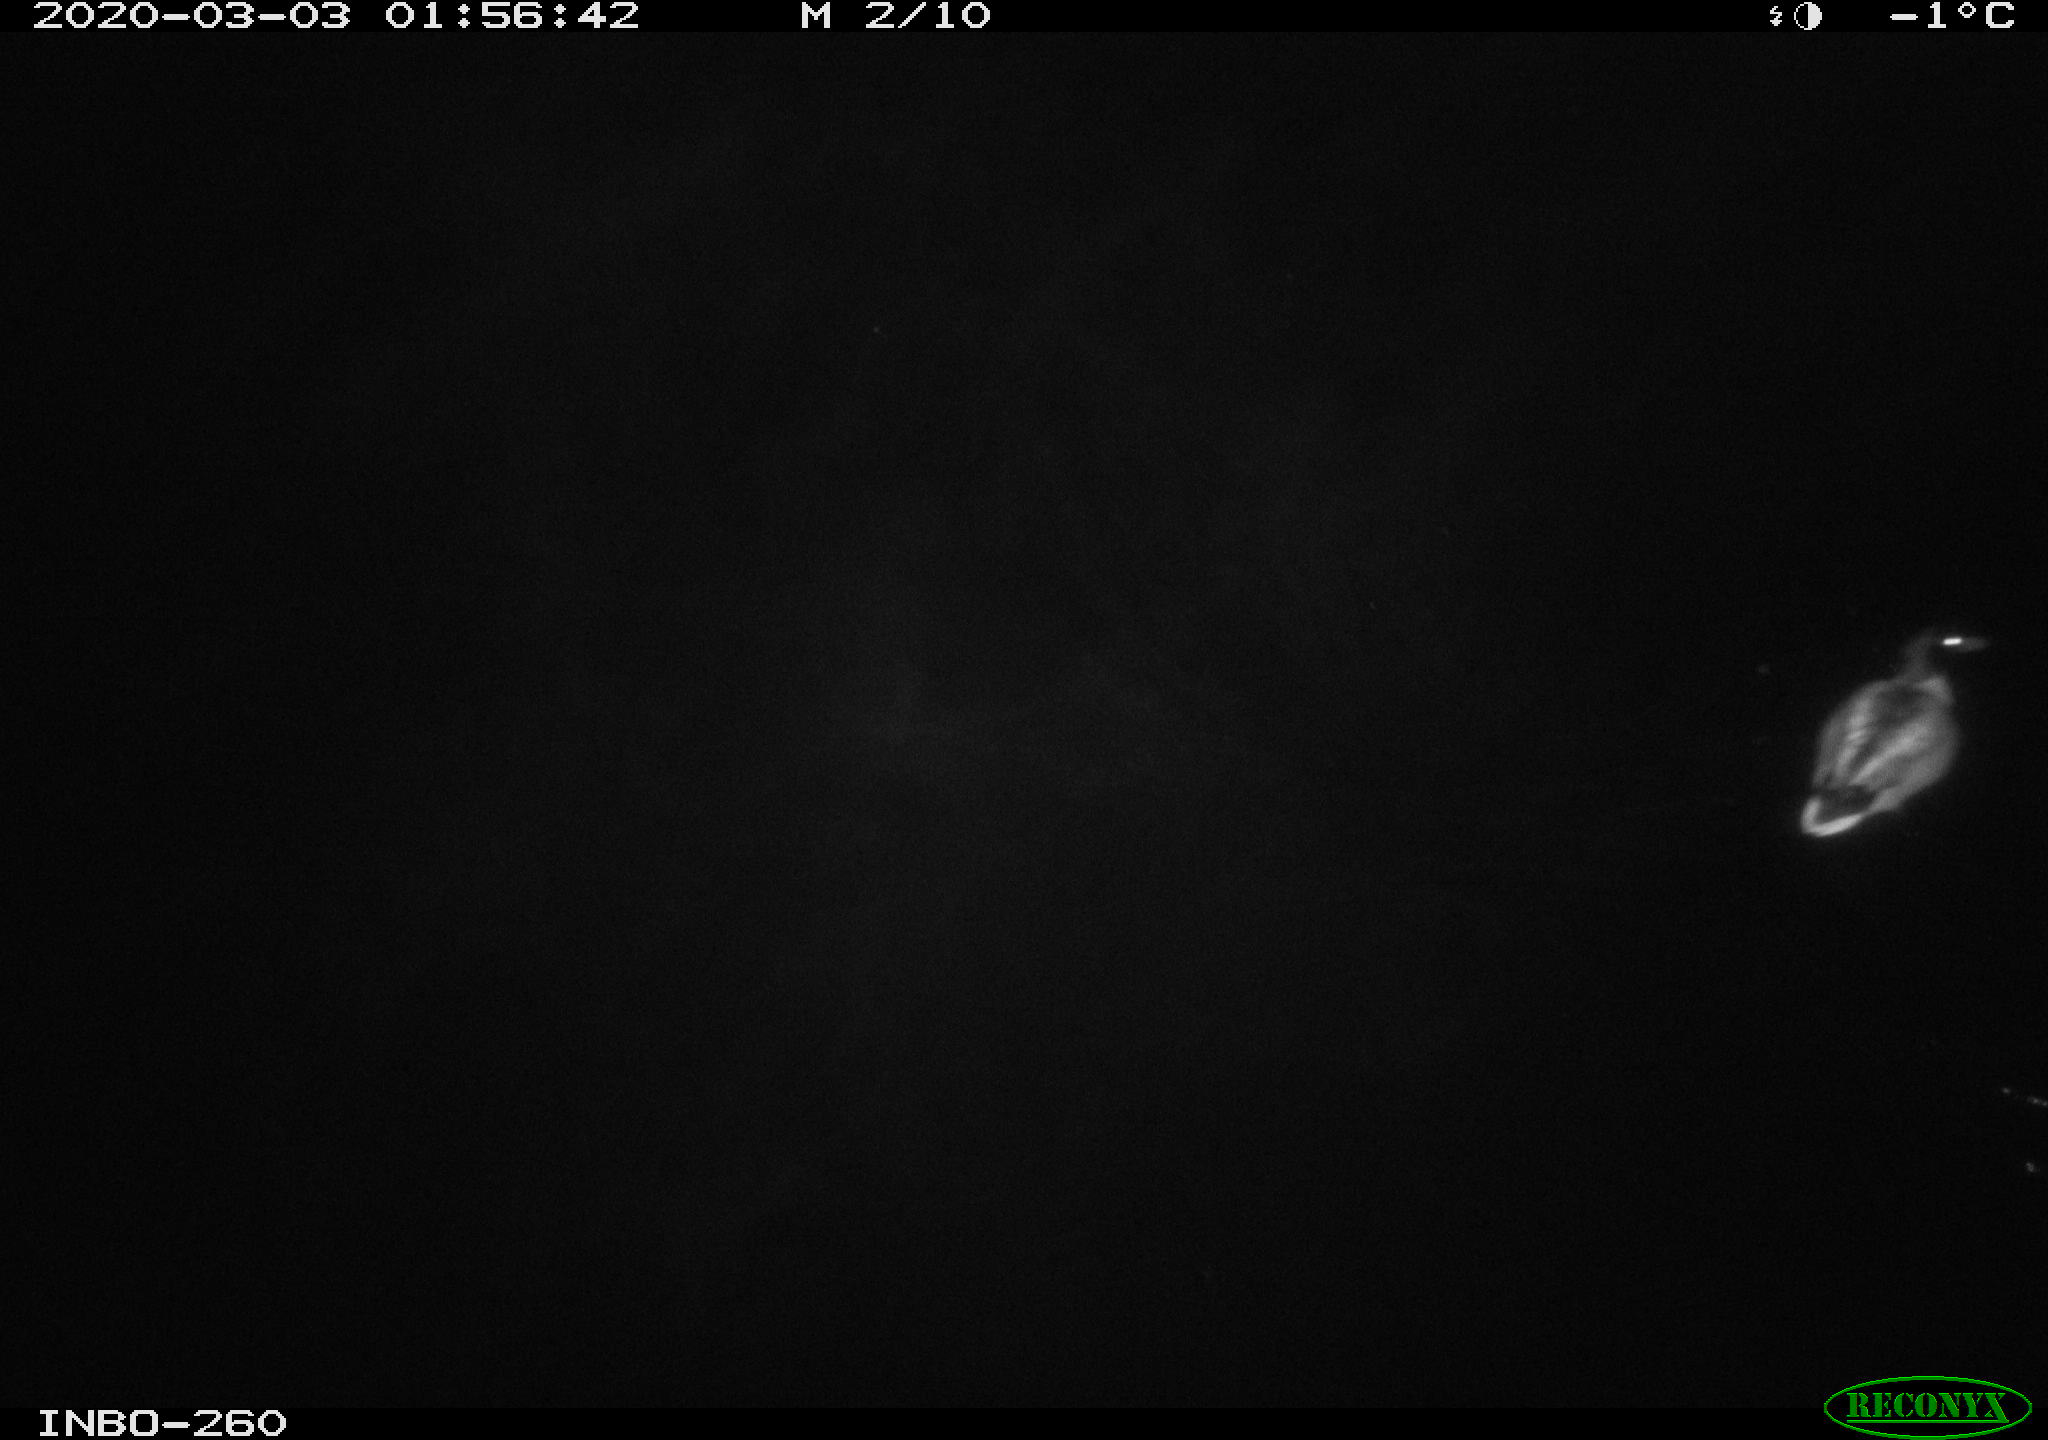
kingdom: Animalia
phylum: Chordata
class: Aves
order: Anseriformes
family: Anatidae
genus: Anas
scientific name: Anas platyrhynchos
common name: Mallard
